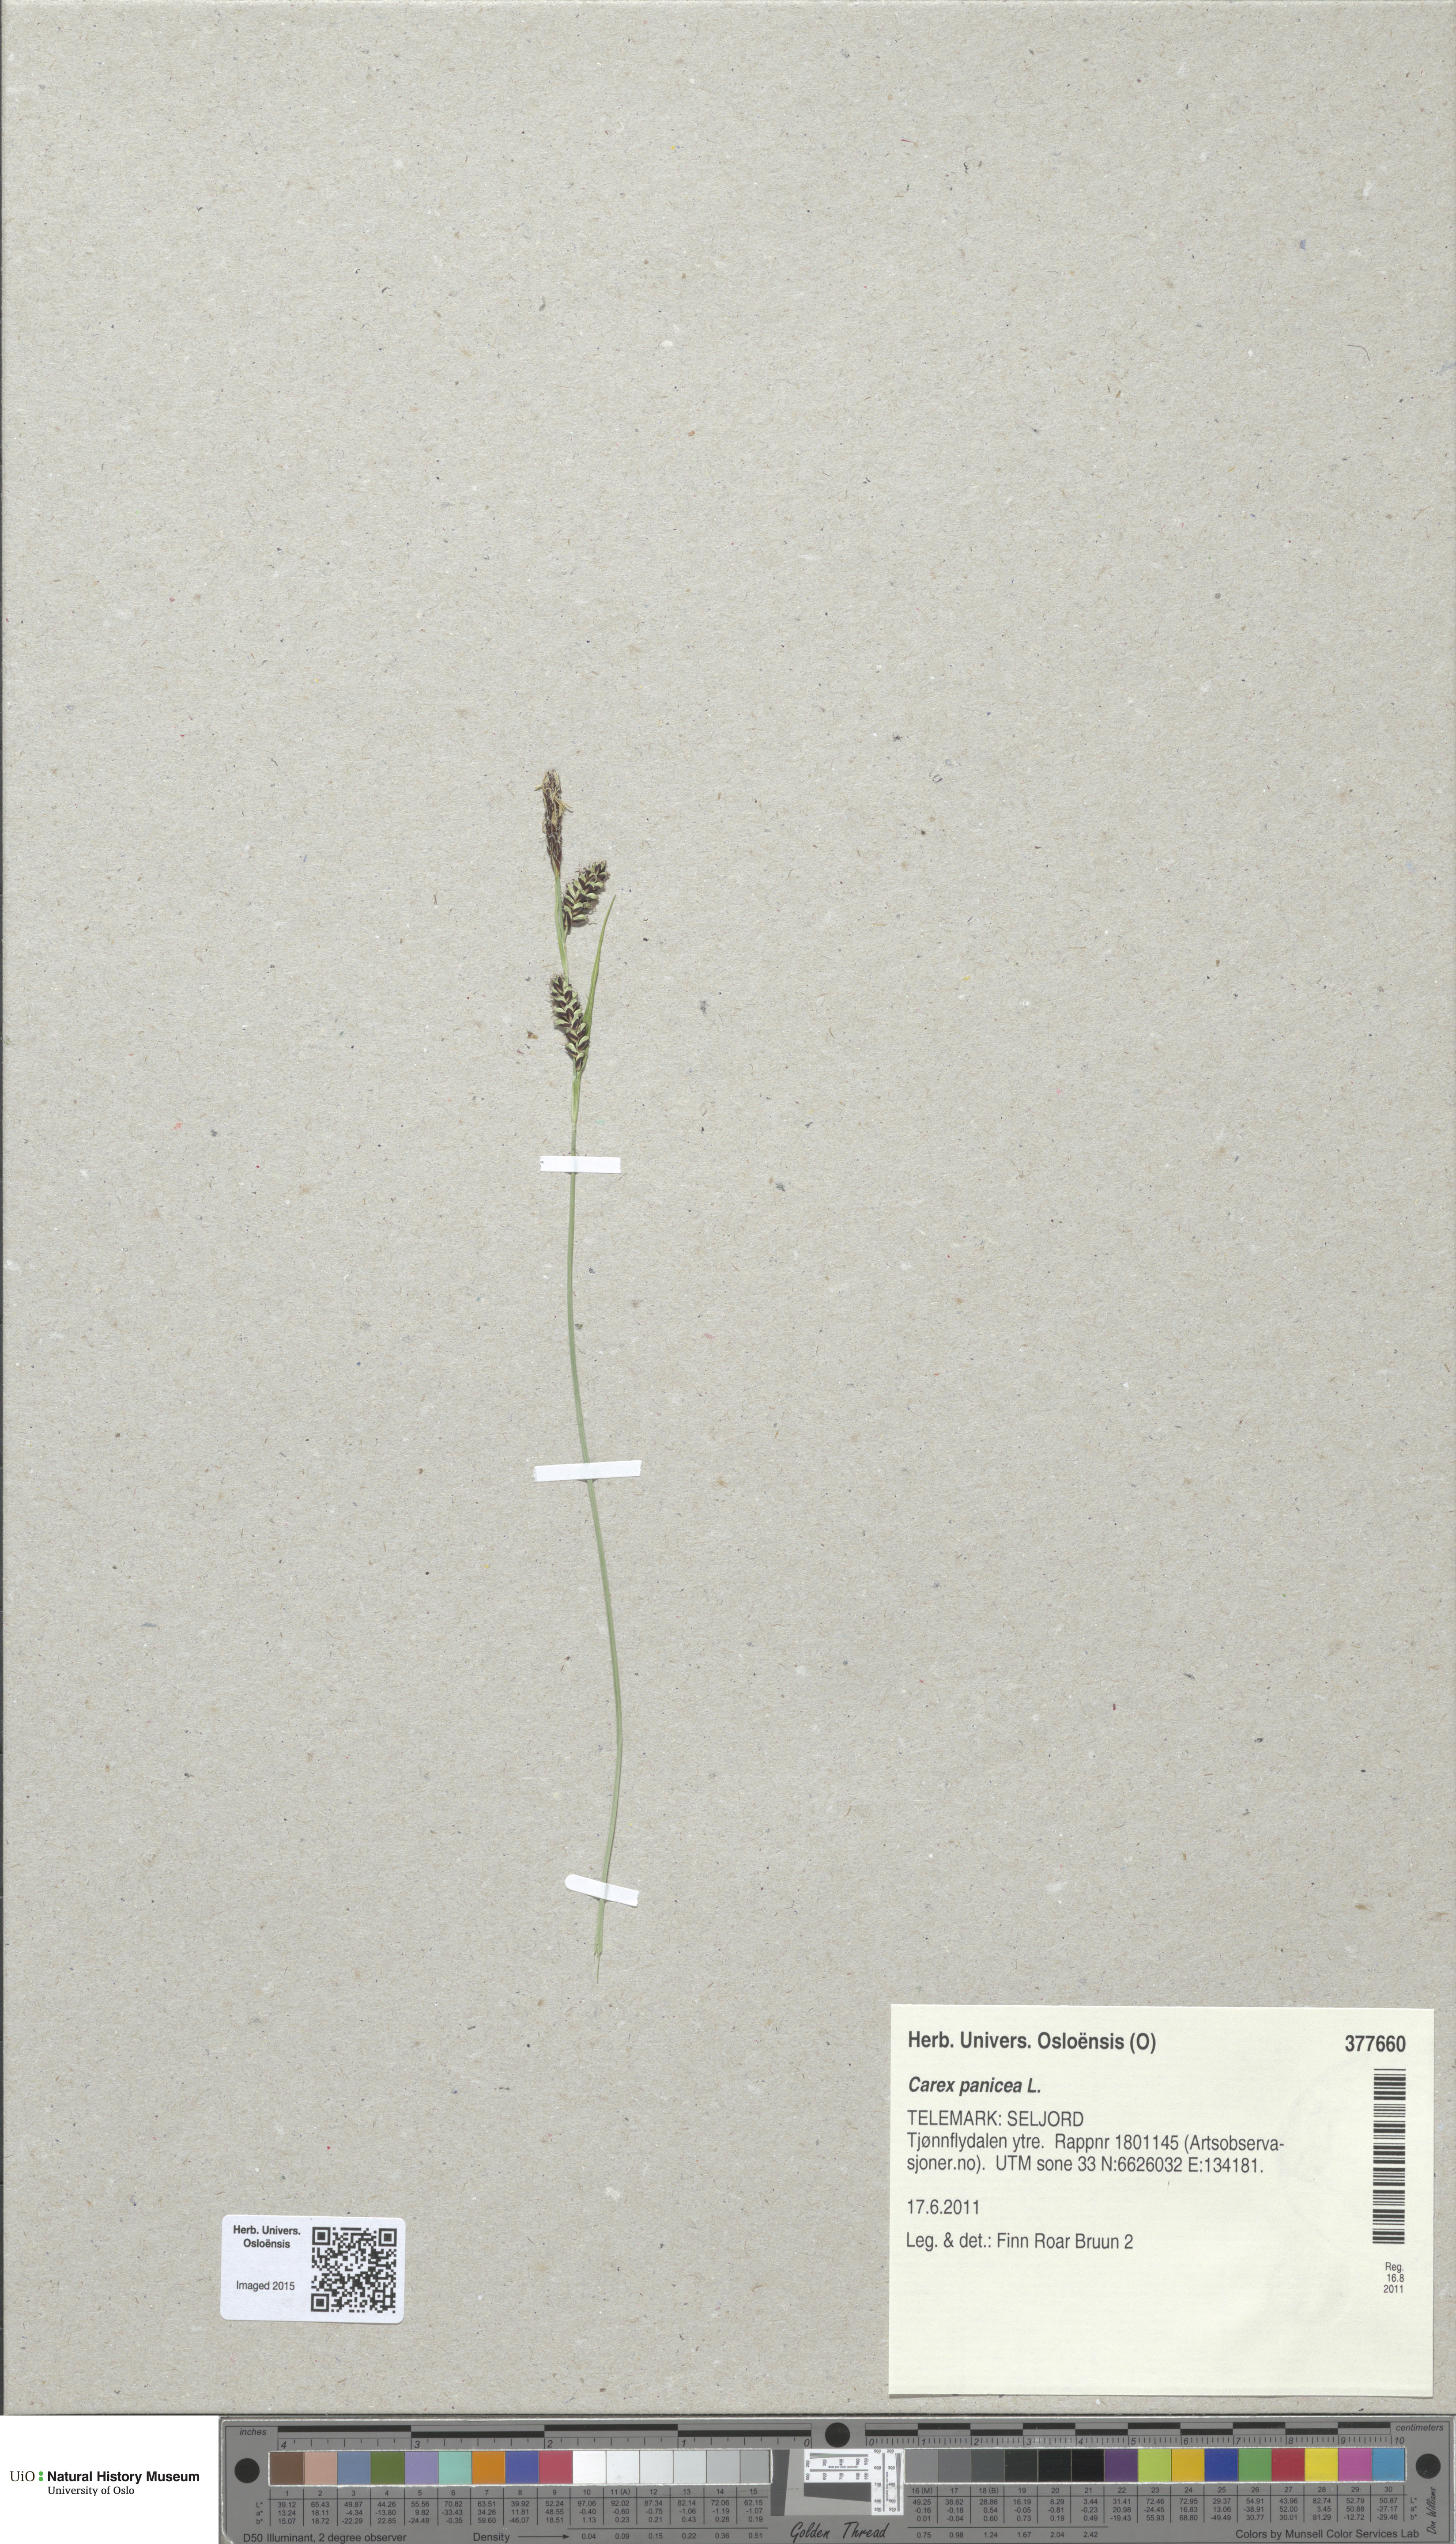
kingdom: Plantae
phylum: Tracheophyta
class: Liliopsida
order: Poales
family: Cyperaceae
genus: Carex
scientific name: Carex panicea
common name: Carnation sedge
